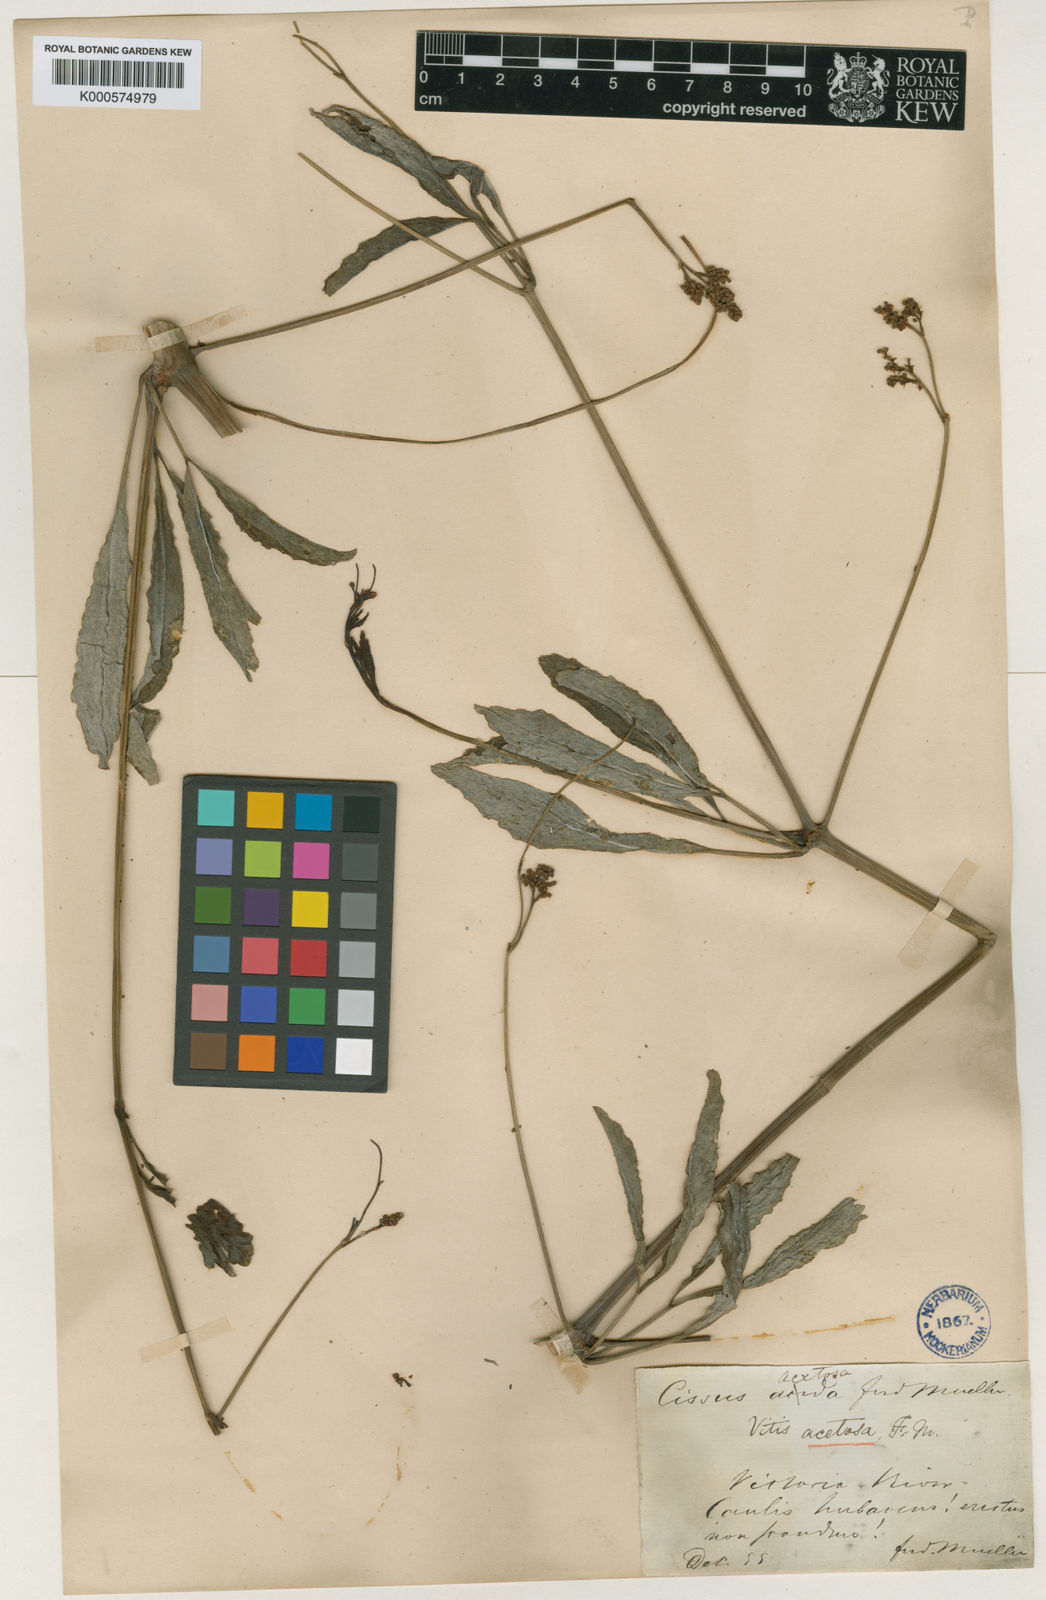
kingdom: Plantae
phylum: Tracheophyta
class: Magnoliopsida
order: Vitales
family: Vitaceae
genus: Ampelocissus
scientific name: Ampelocissus acetosa
